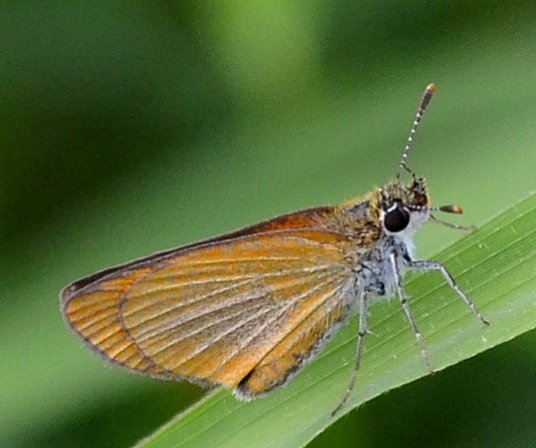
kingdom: Animalia
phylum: Arthropoda
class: Insecta
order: Lepidoptera
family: Hesperiidae
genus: Ancyloxypha
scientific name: Ancyloxypha numitor
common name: Least Skipper
